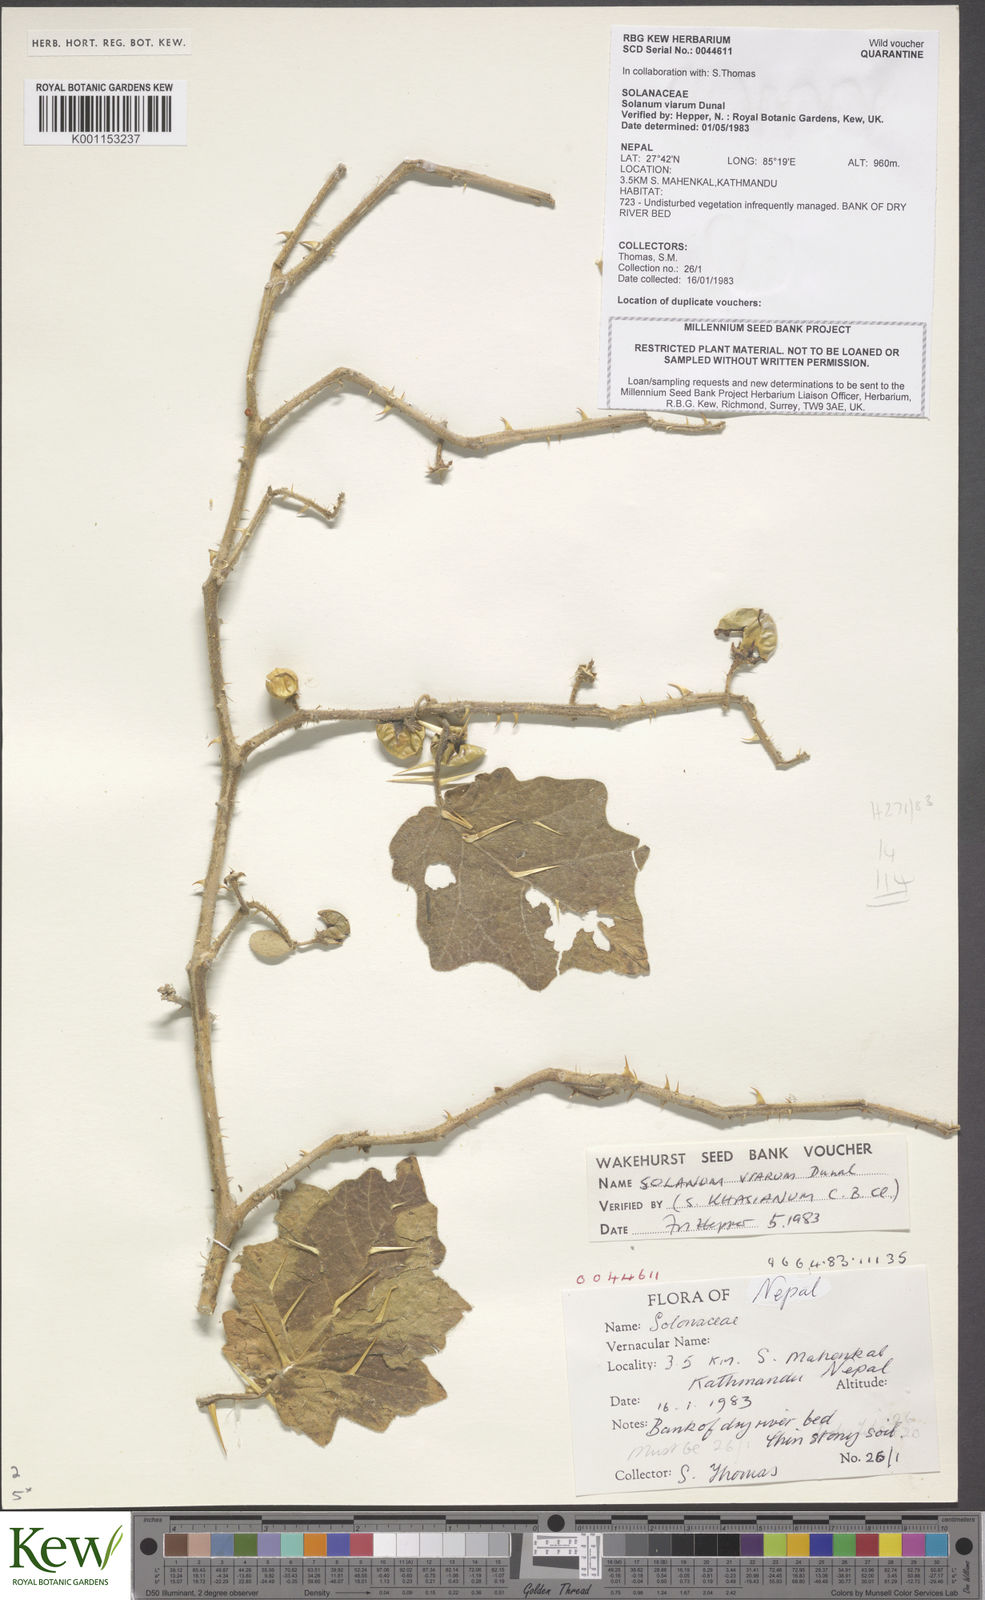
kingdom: Plantae
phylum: Tracheophyta
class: Magnoliopsida
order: Solanales
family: Solanaceae
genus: Solanum
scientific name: Solanum viarum
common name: Tropical soda apple
